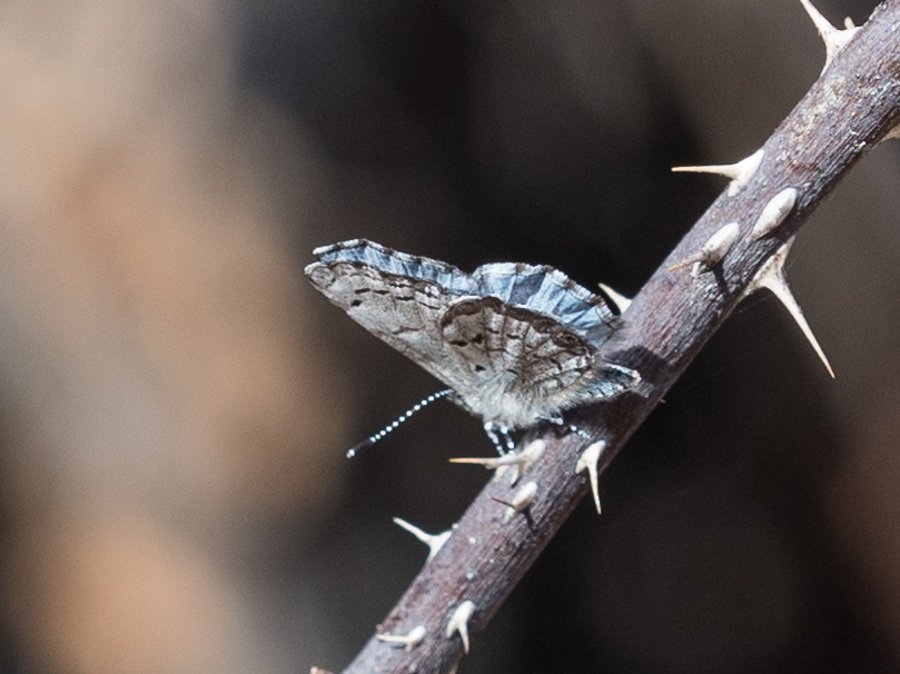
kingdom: Animalia
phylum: Arthropoda
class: Insecta
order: Lepidoptera
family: Lycaenidae
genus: Celastrina
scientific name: Celastrina lucia
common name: Northern Spring Azure
